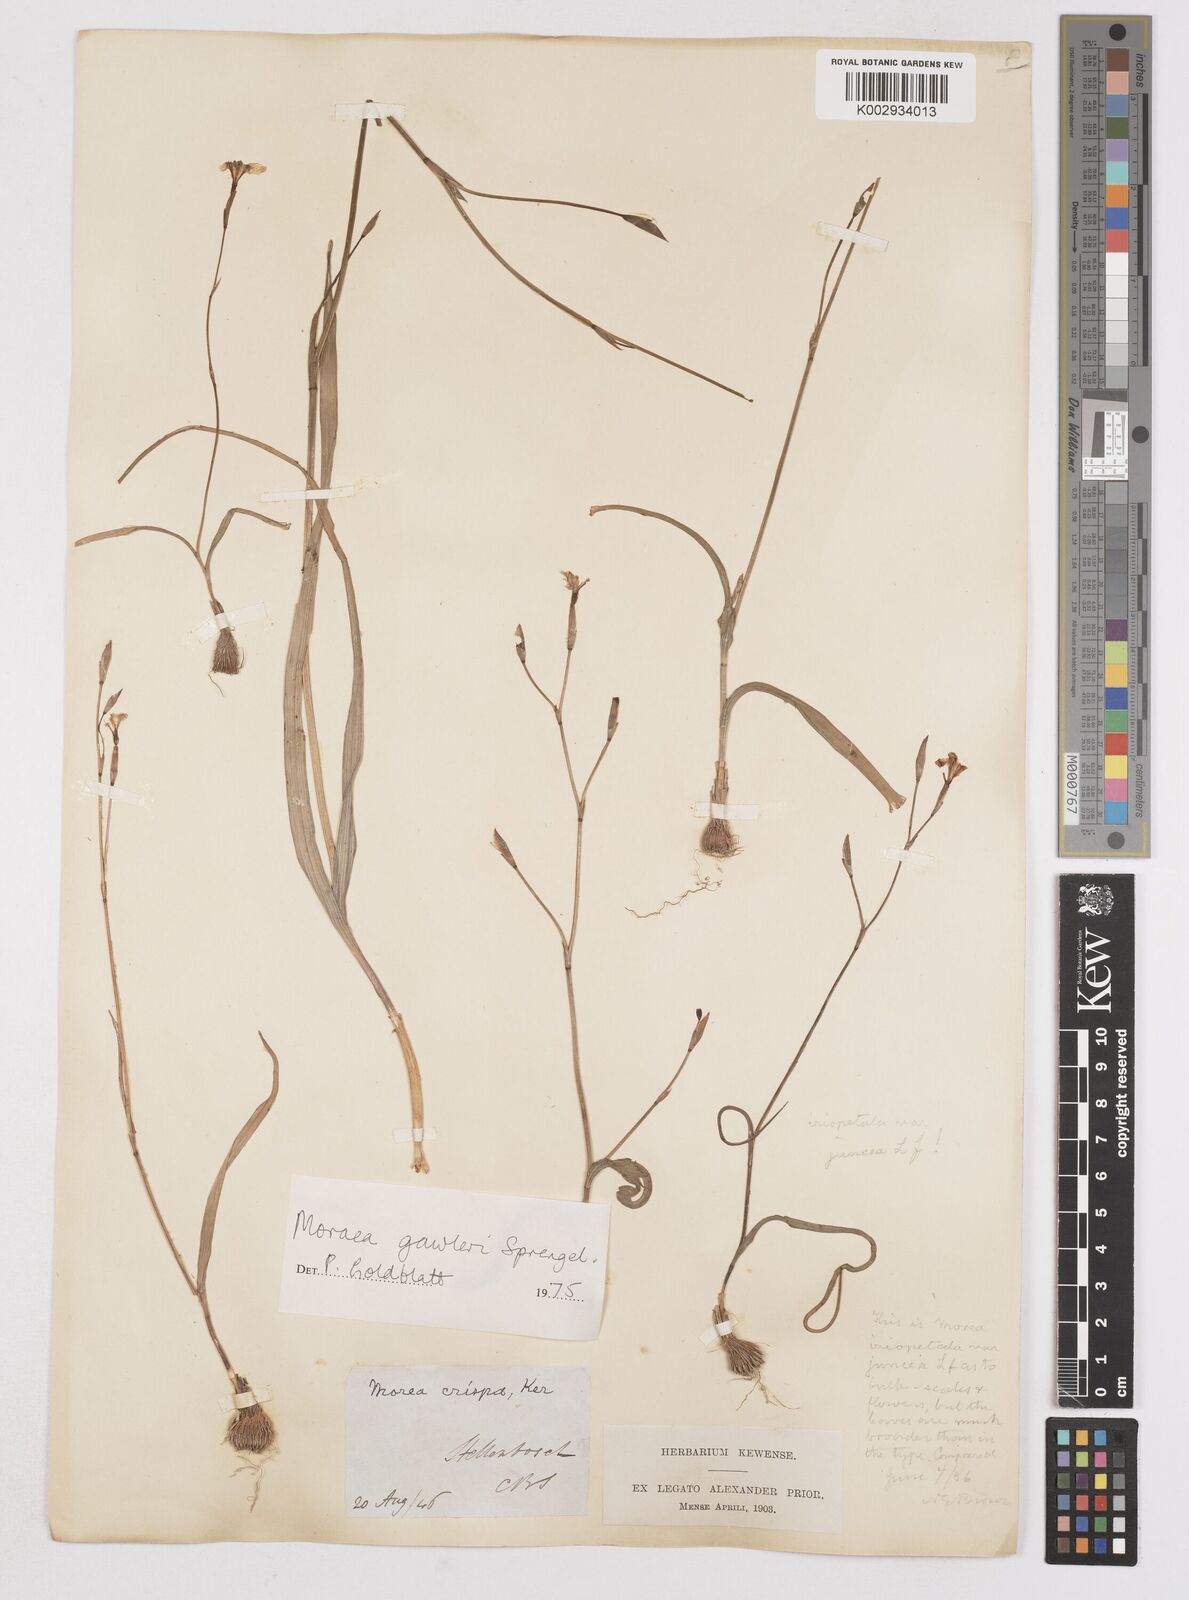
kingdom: Plantae
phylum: Tracheophyta
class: Liliopsida
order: Asparagales
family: Iridaceae
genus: Moraea
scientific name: Moraea gawleri
